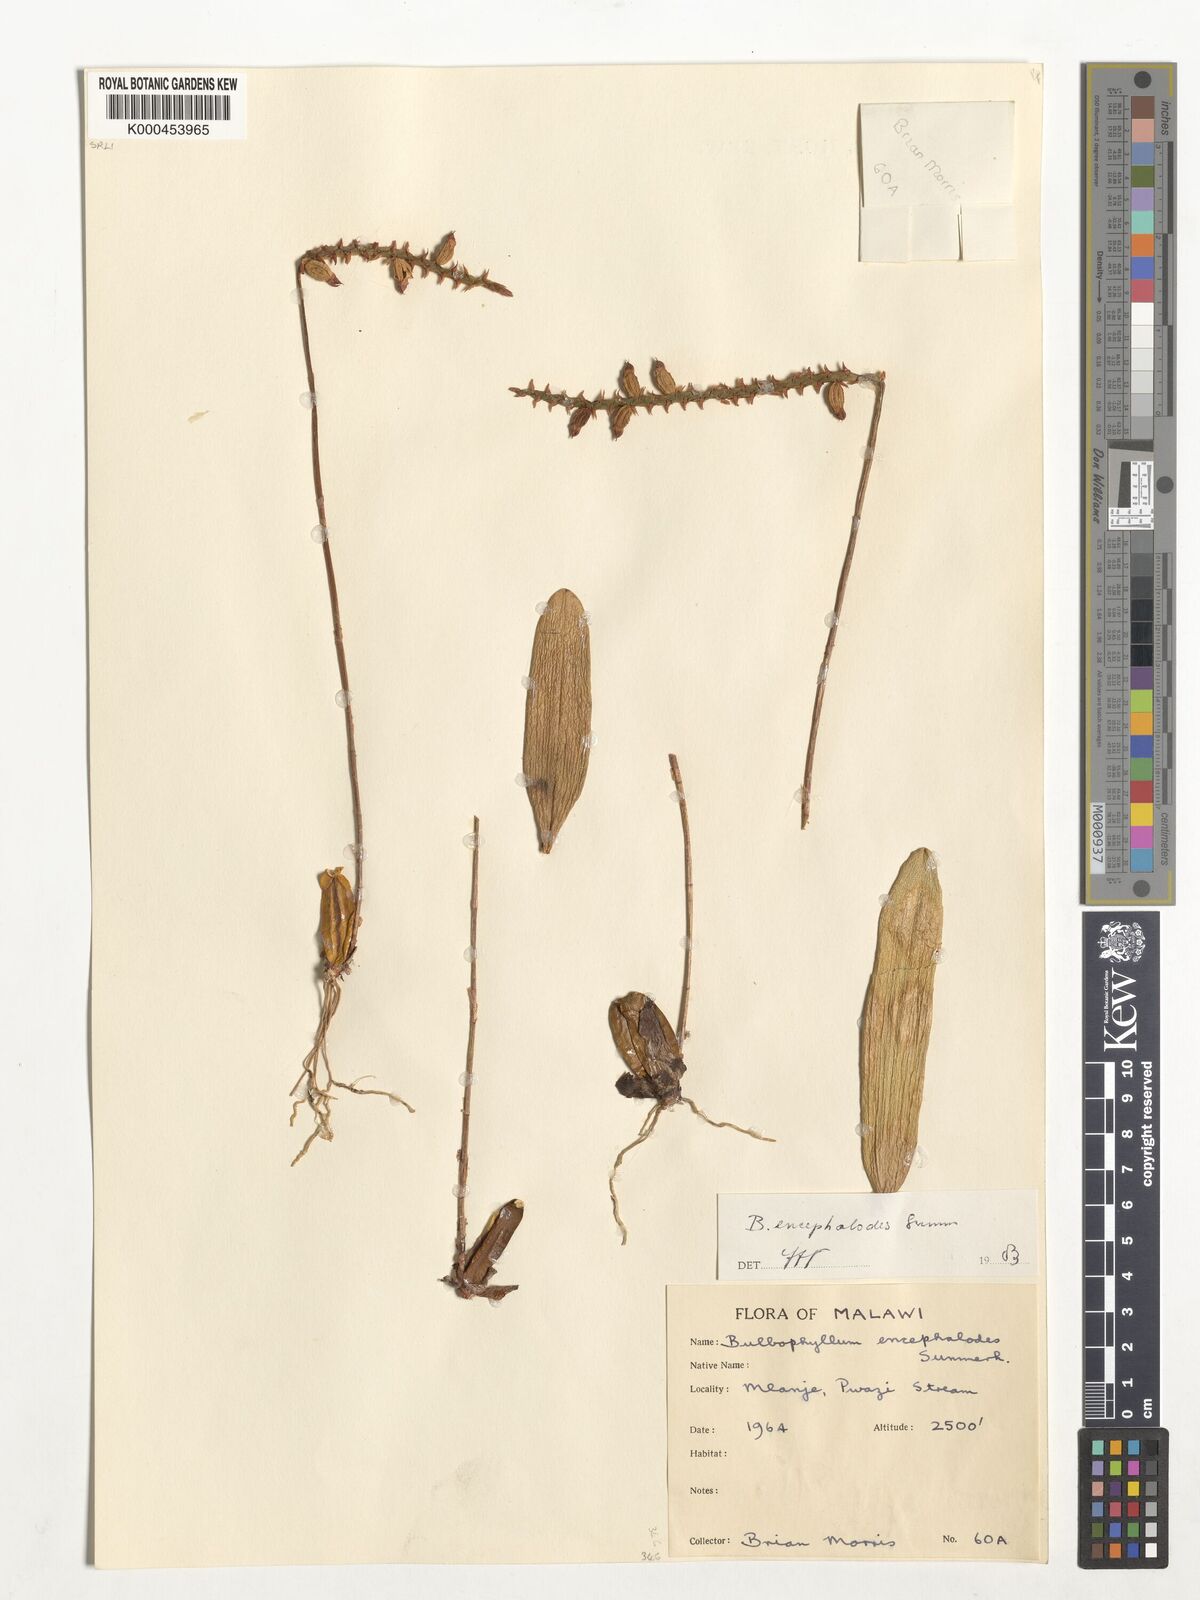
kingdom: Plantae
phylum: Tracheophyta
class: Liliopsida
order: Asparagales
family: Orchidaceae
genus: Bulbophyllum
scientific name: Bulbophyllum encephalodes
